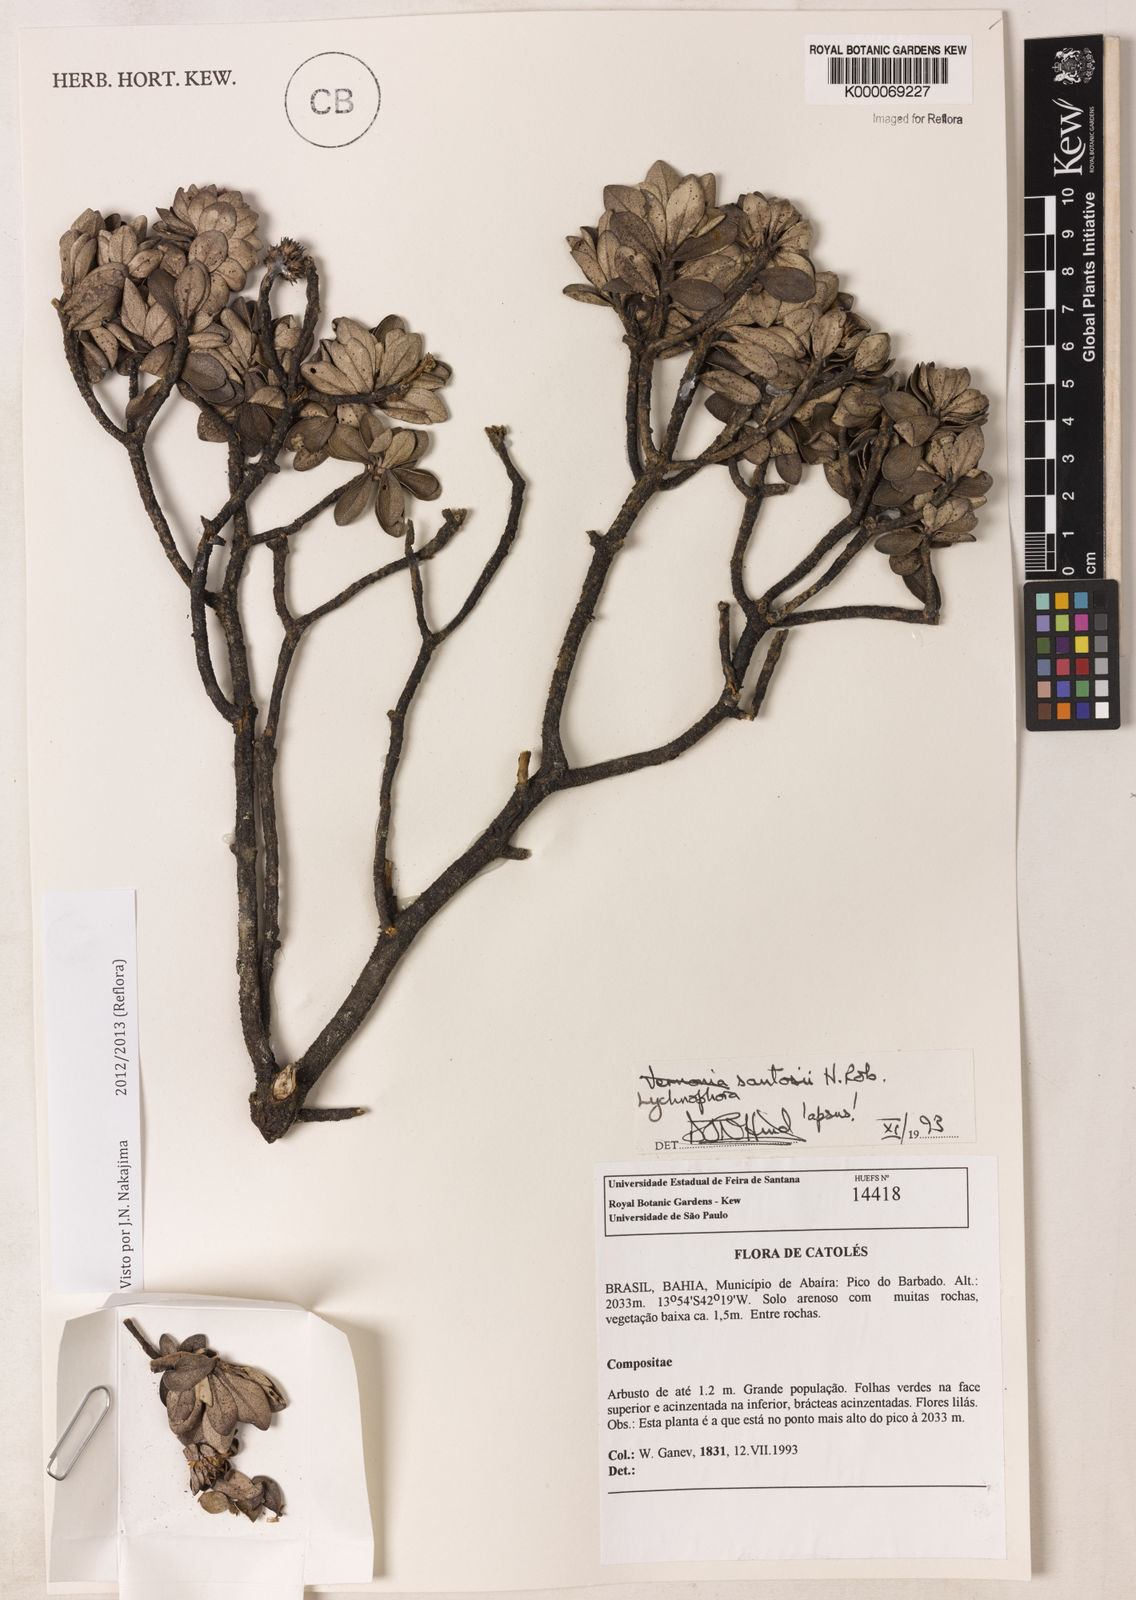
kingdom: Plantae
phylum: Tracheophyta
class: Magnoliopsida
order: Asterales
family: Asteraceae
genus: Lychnophorella
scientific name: Lychnophorella santosii
